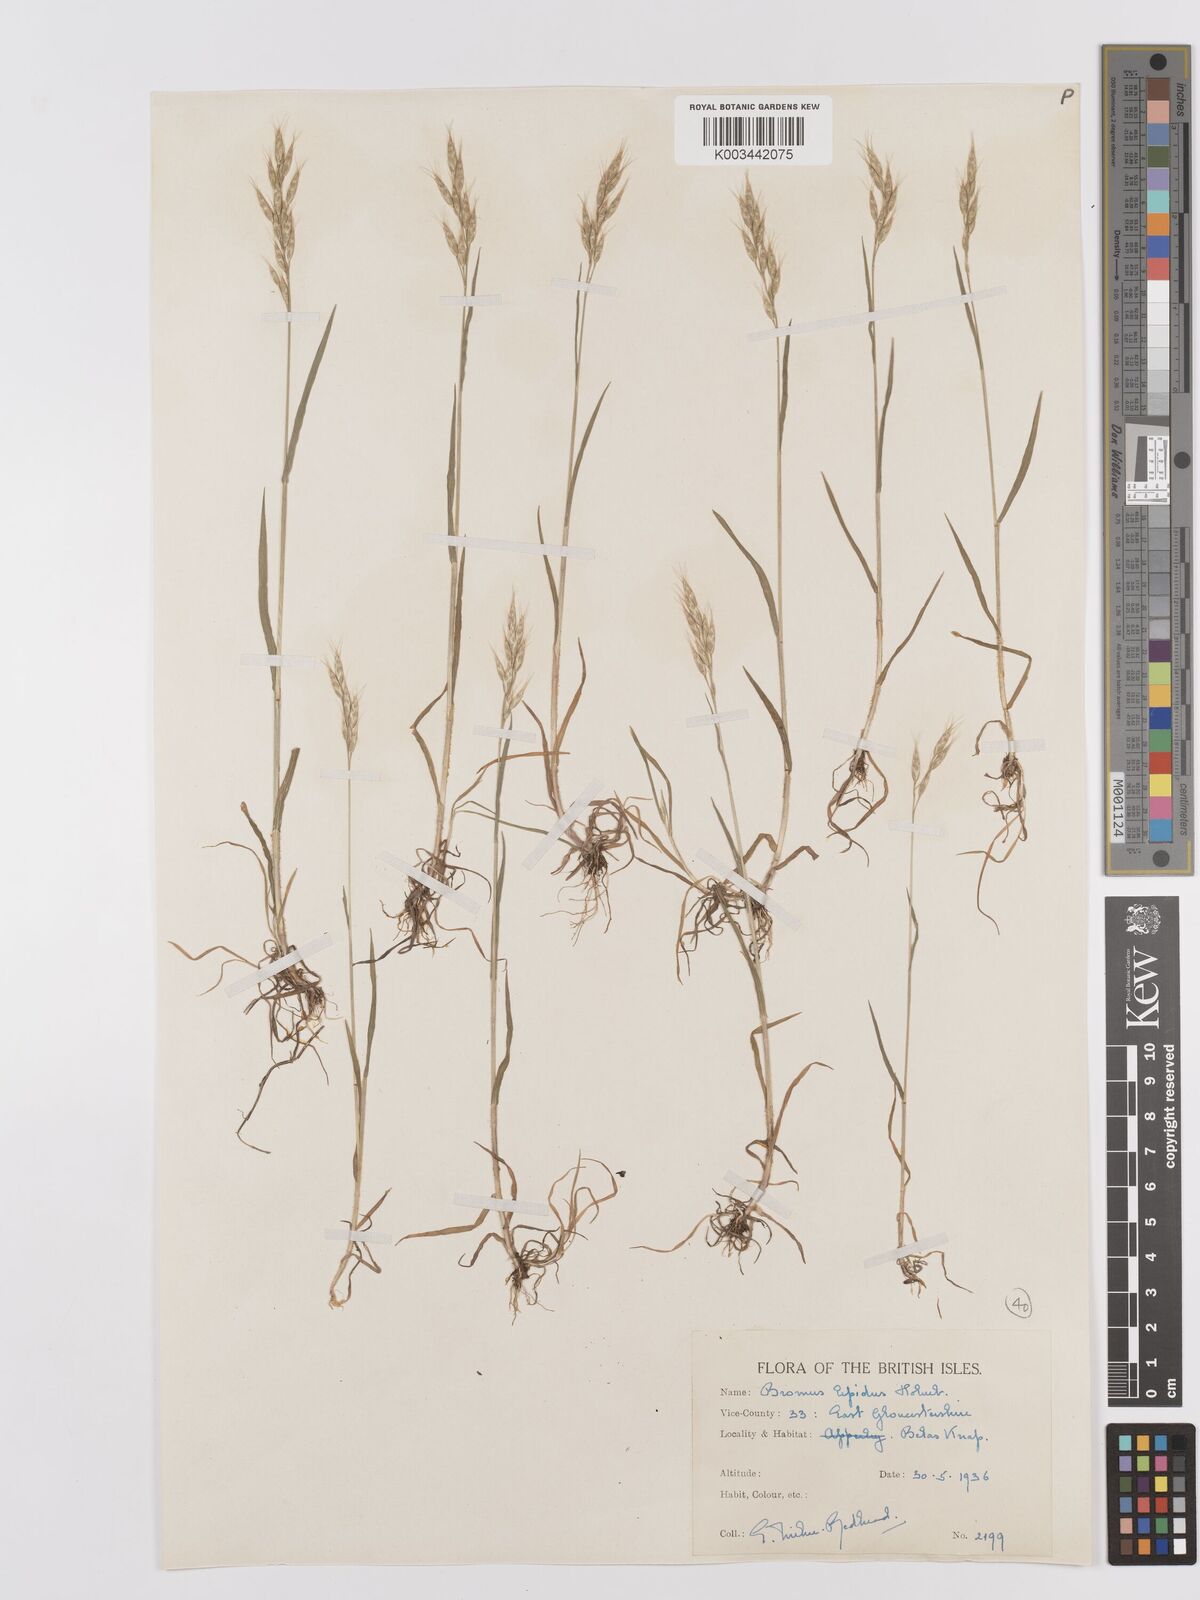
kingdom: Plantae
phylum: Tracheophyta
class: Liliopsida
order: Poales
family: Poaceae
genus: Bromus
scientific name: Bromus lepidus
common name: Slender soft-brome
